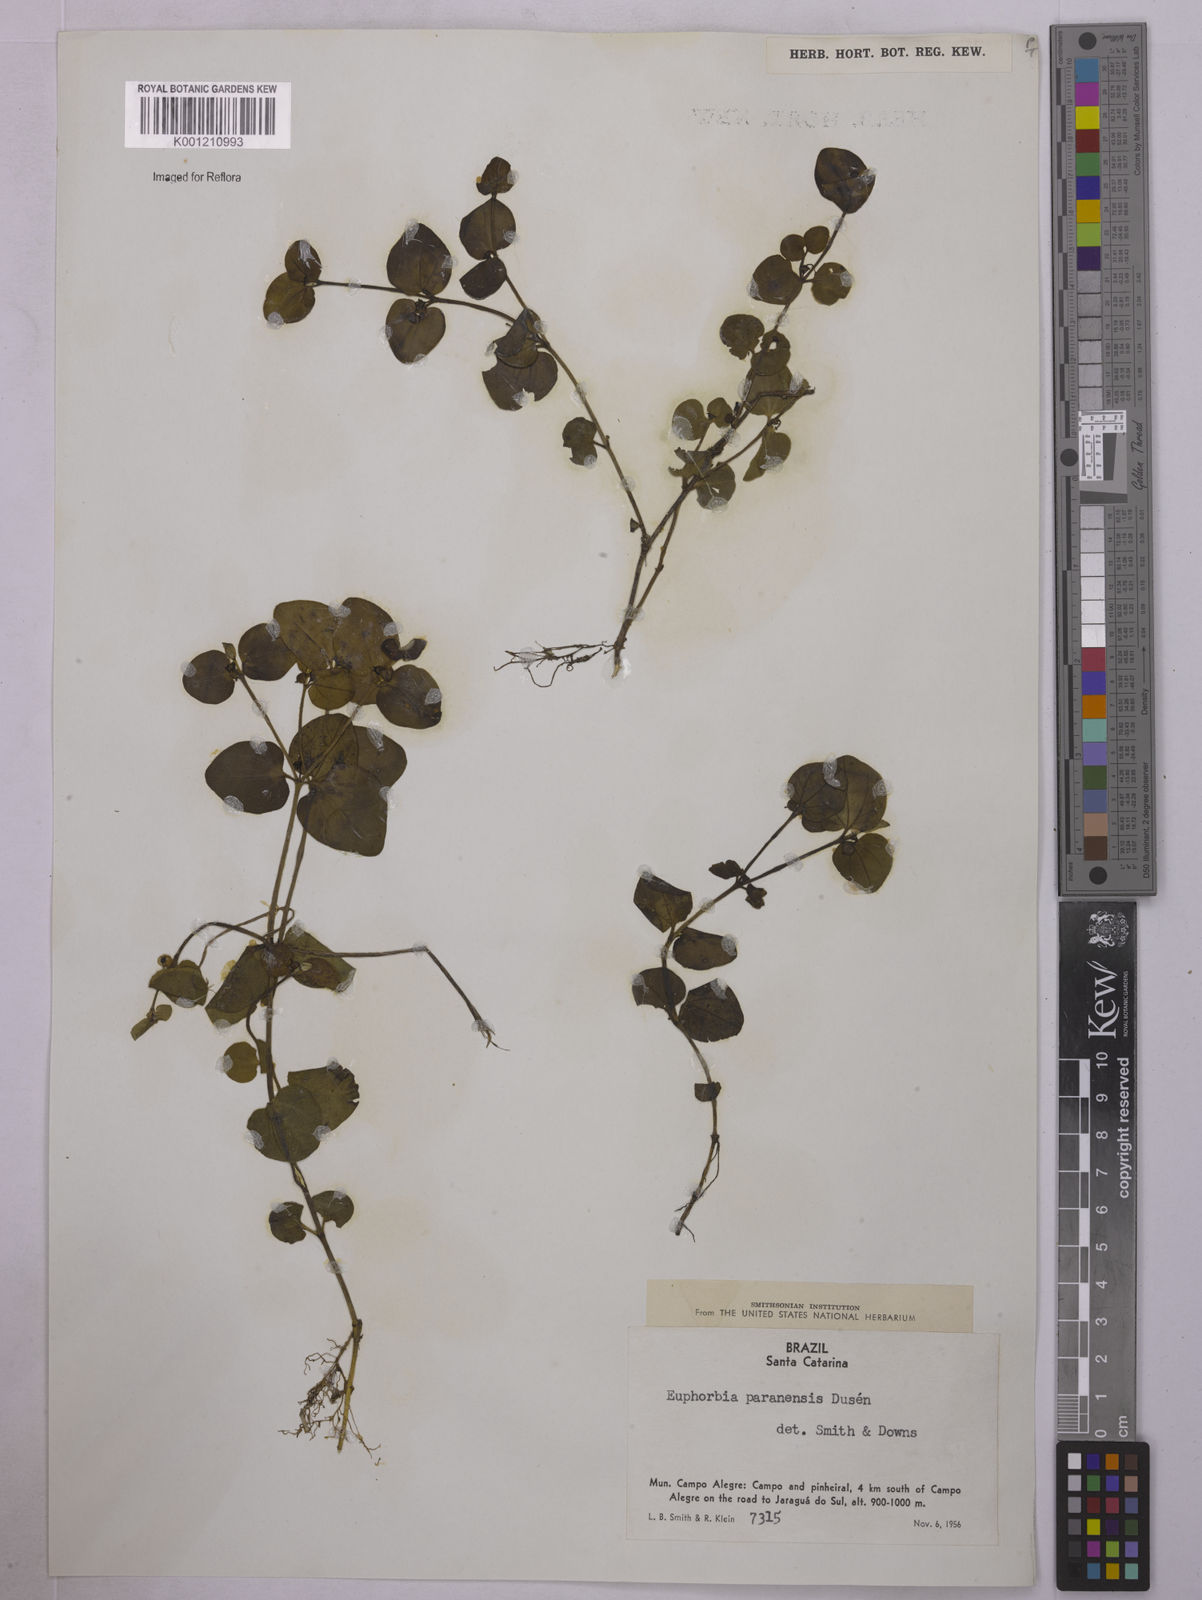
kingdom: Plantae
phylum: Tracheophyta
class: Magnoliopsida
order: Malpighiales
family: Euphorbiaceae
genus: Euphorbia
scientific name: Euphorbia
